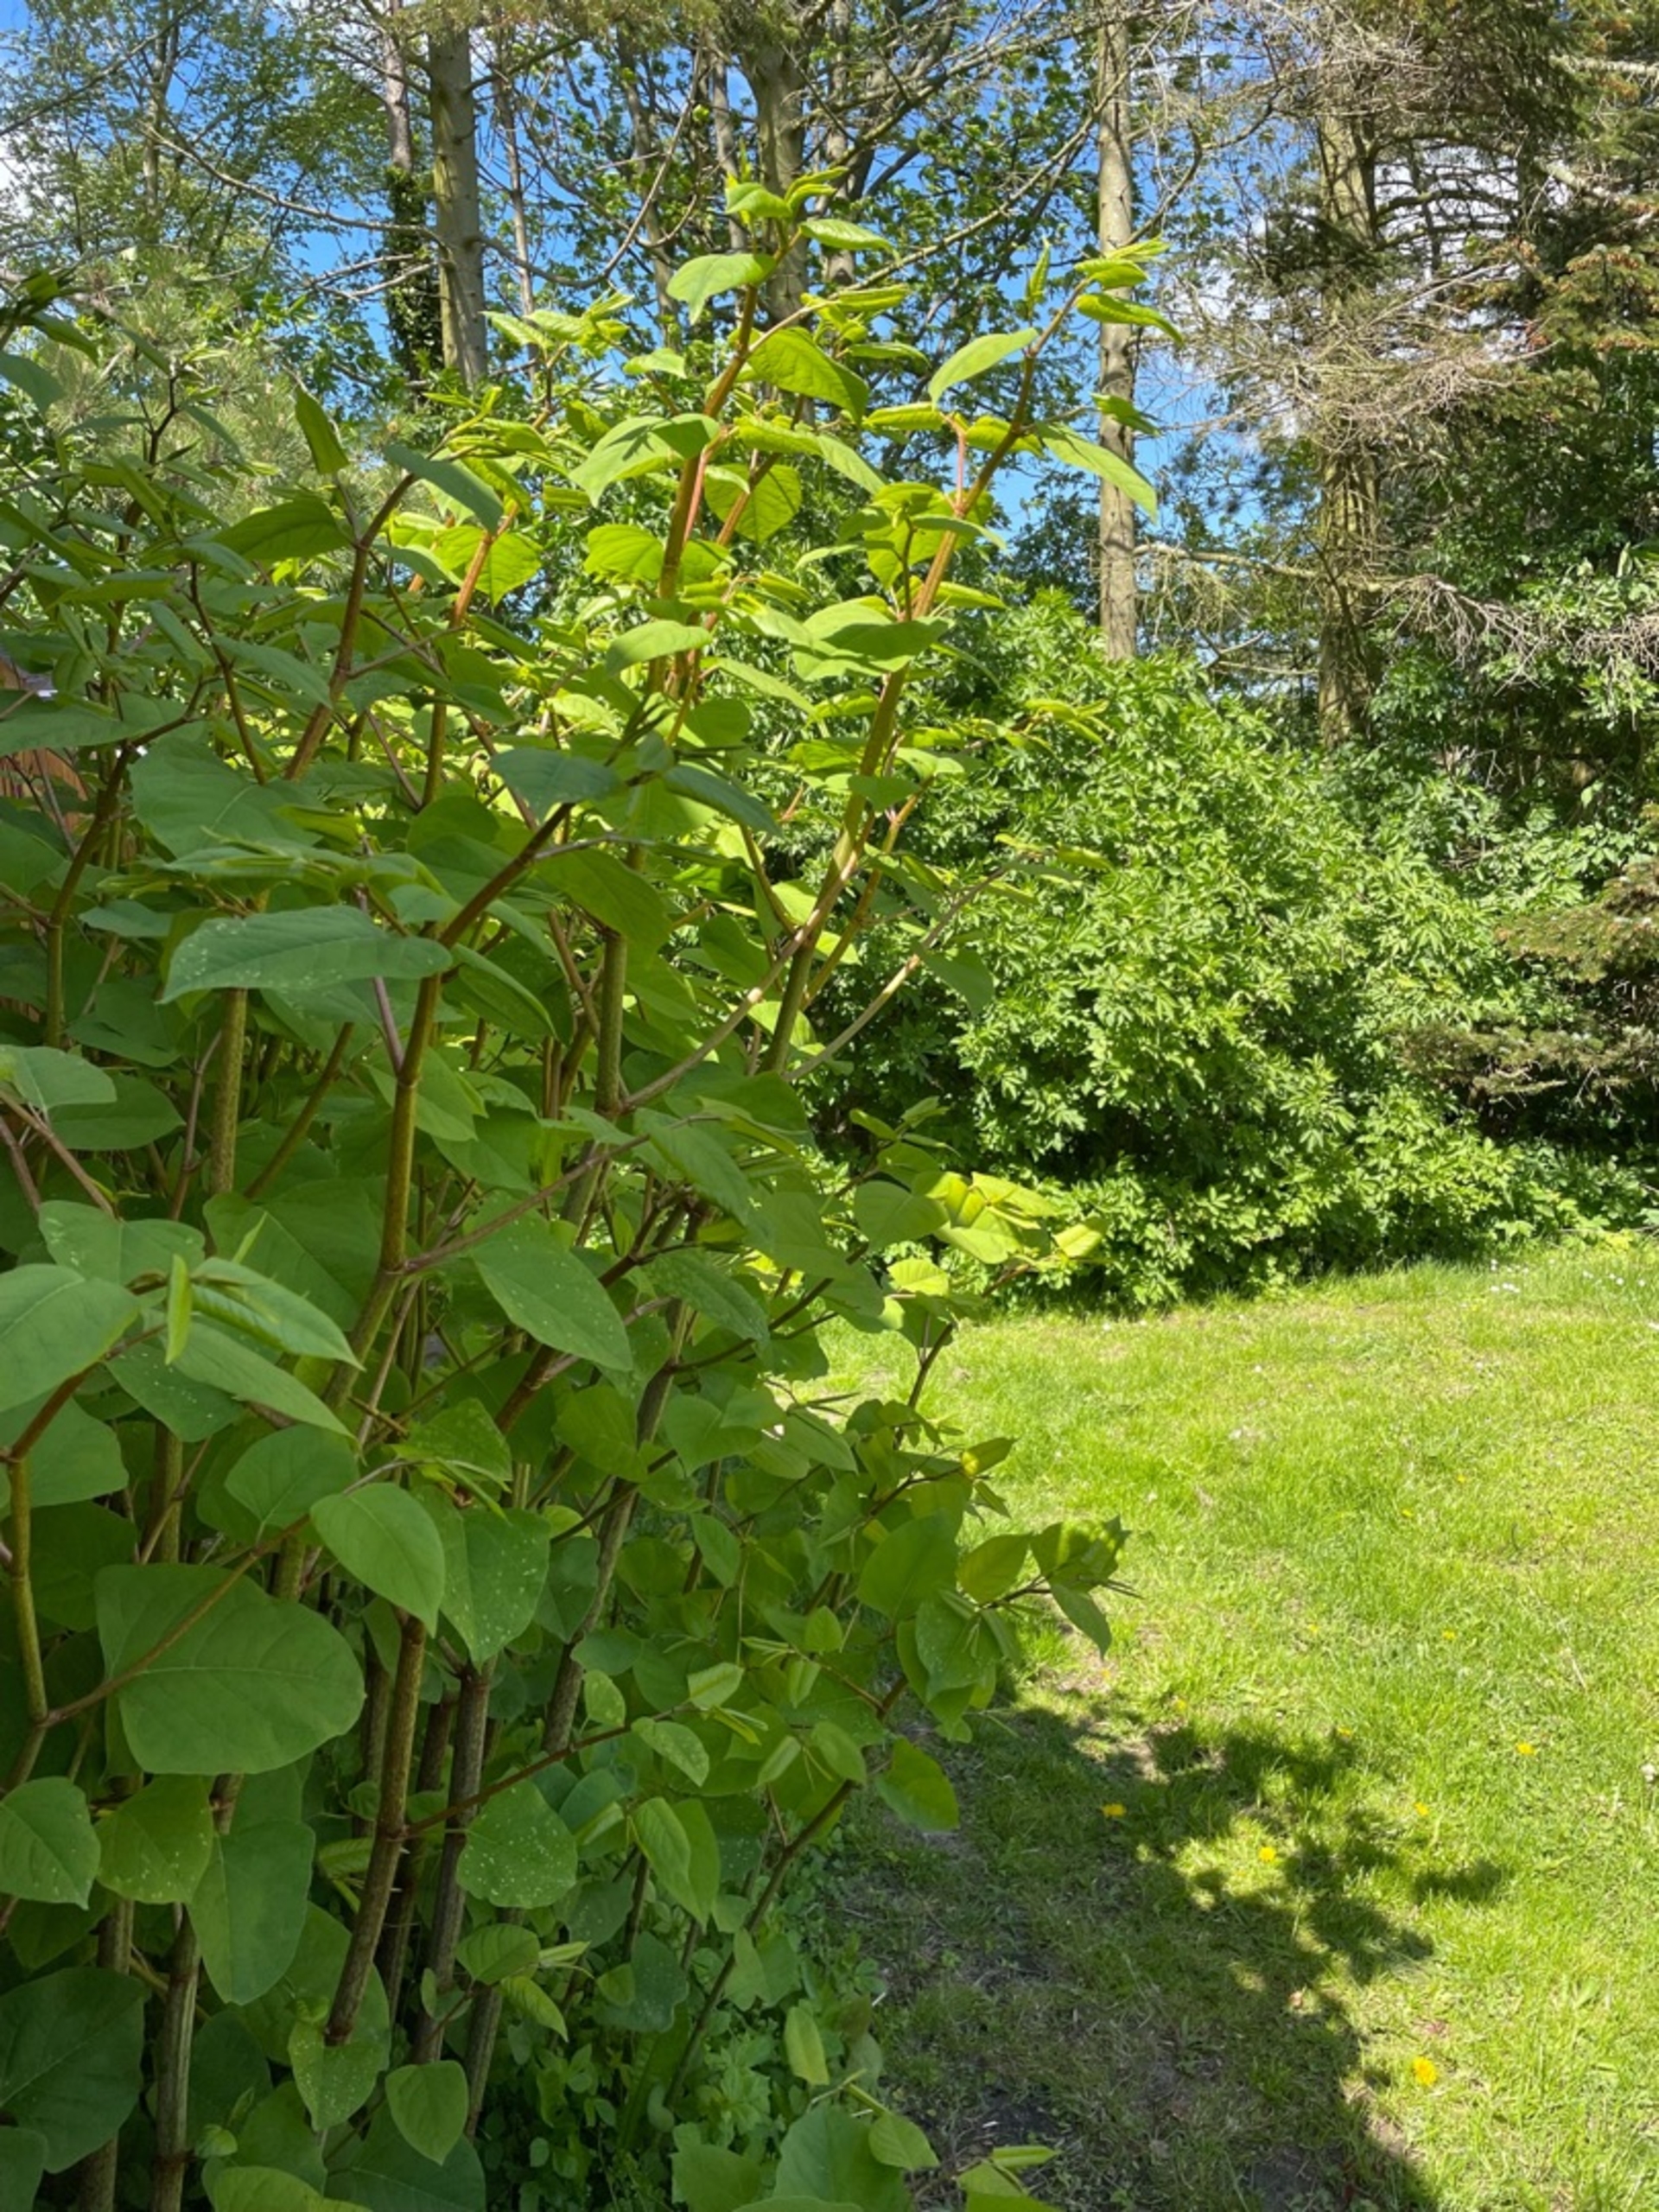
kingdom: Plantae
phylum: Tracheophyta
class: Magnoliopsida
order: Caryophyllales
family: Polygonaceae
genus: Reynoutria
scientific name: Reynoutria japonica
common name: Japan-pileurt
